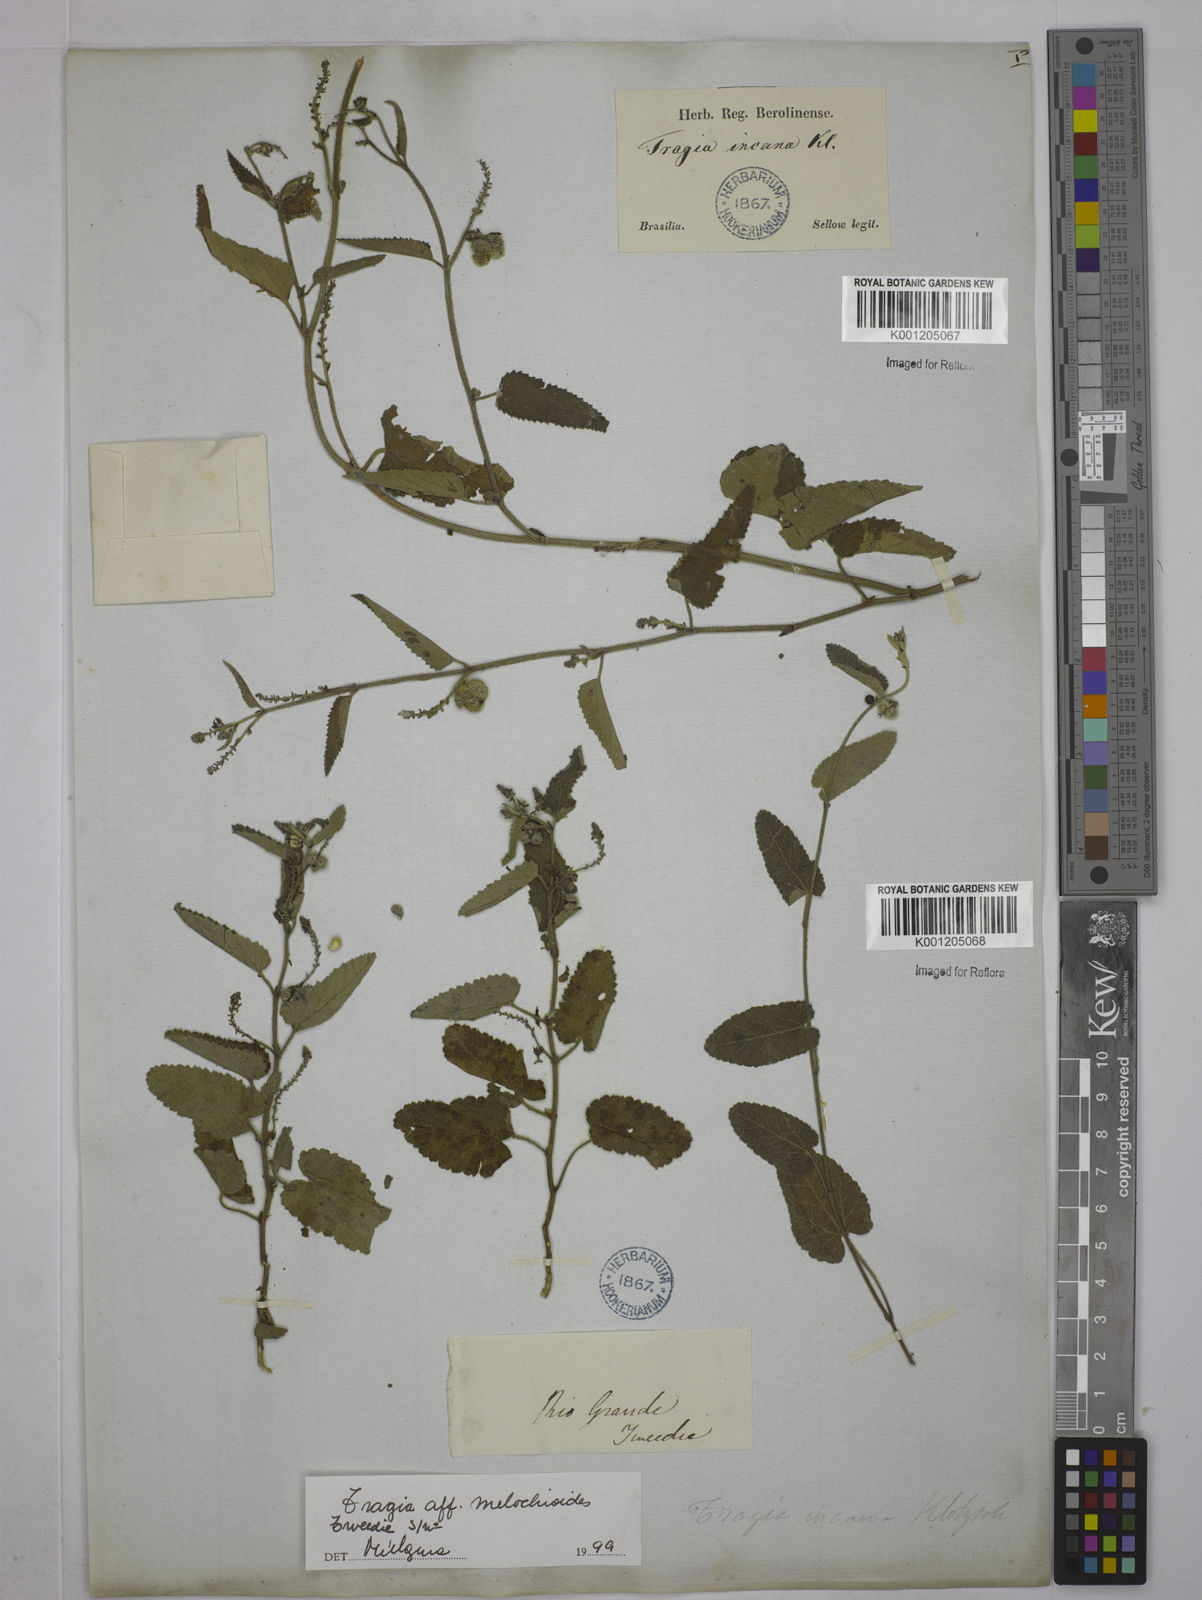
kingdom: Plantae
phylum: Tracheophyta
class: Magnoliopsida
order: Malpighiales
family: Euphorbiaceae
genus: Tragia
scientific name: Tragia
